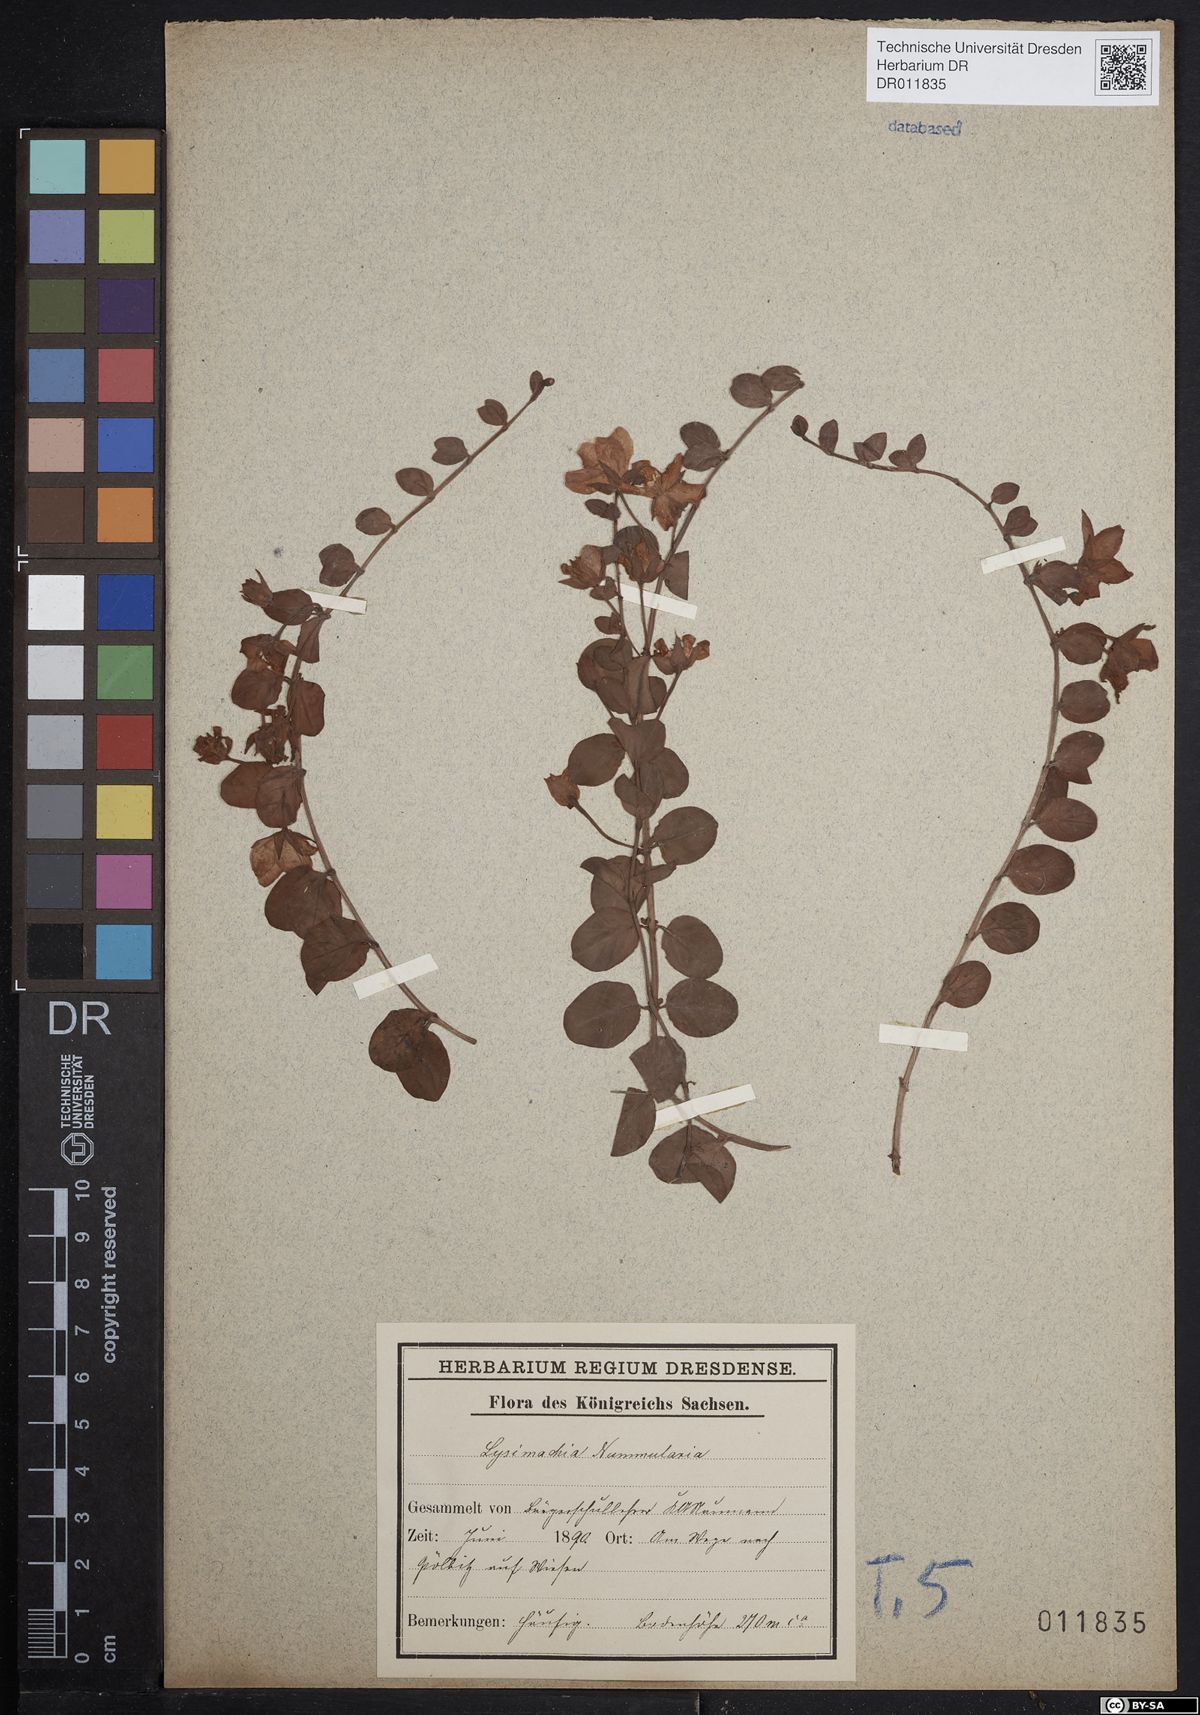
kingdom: Plantae
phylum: Tracheophyta
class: Magnoliopsida
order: Ericales
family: Primulaceae
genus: Lysimachia
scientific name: Lysimachia nummularia
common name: Moneywort
